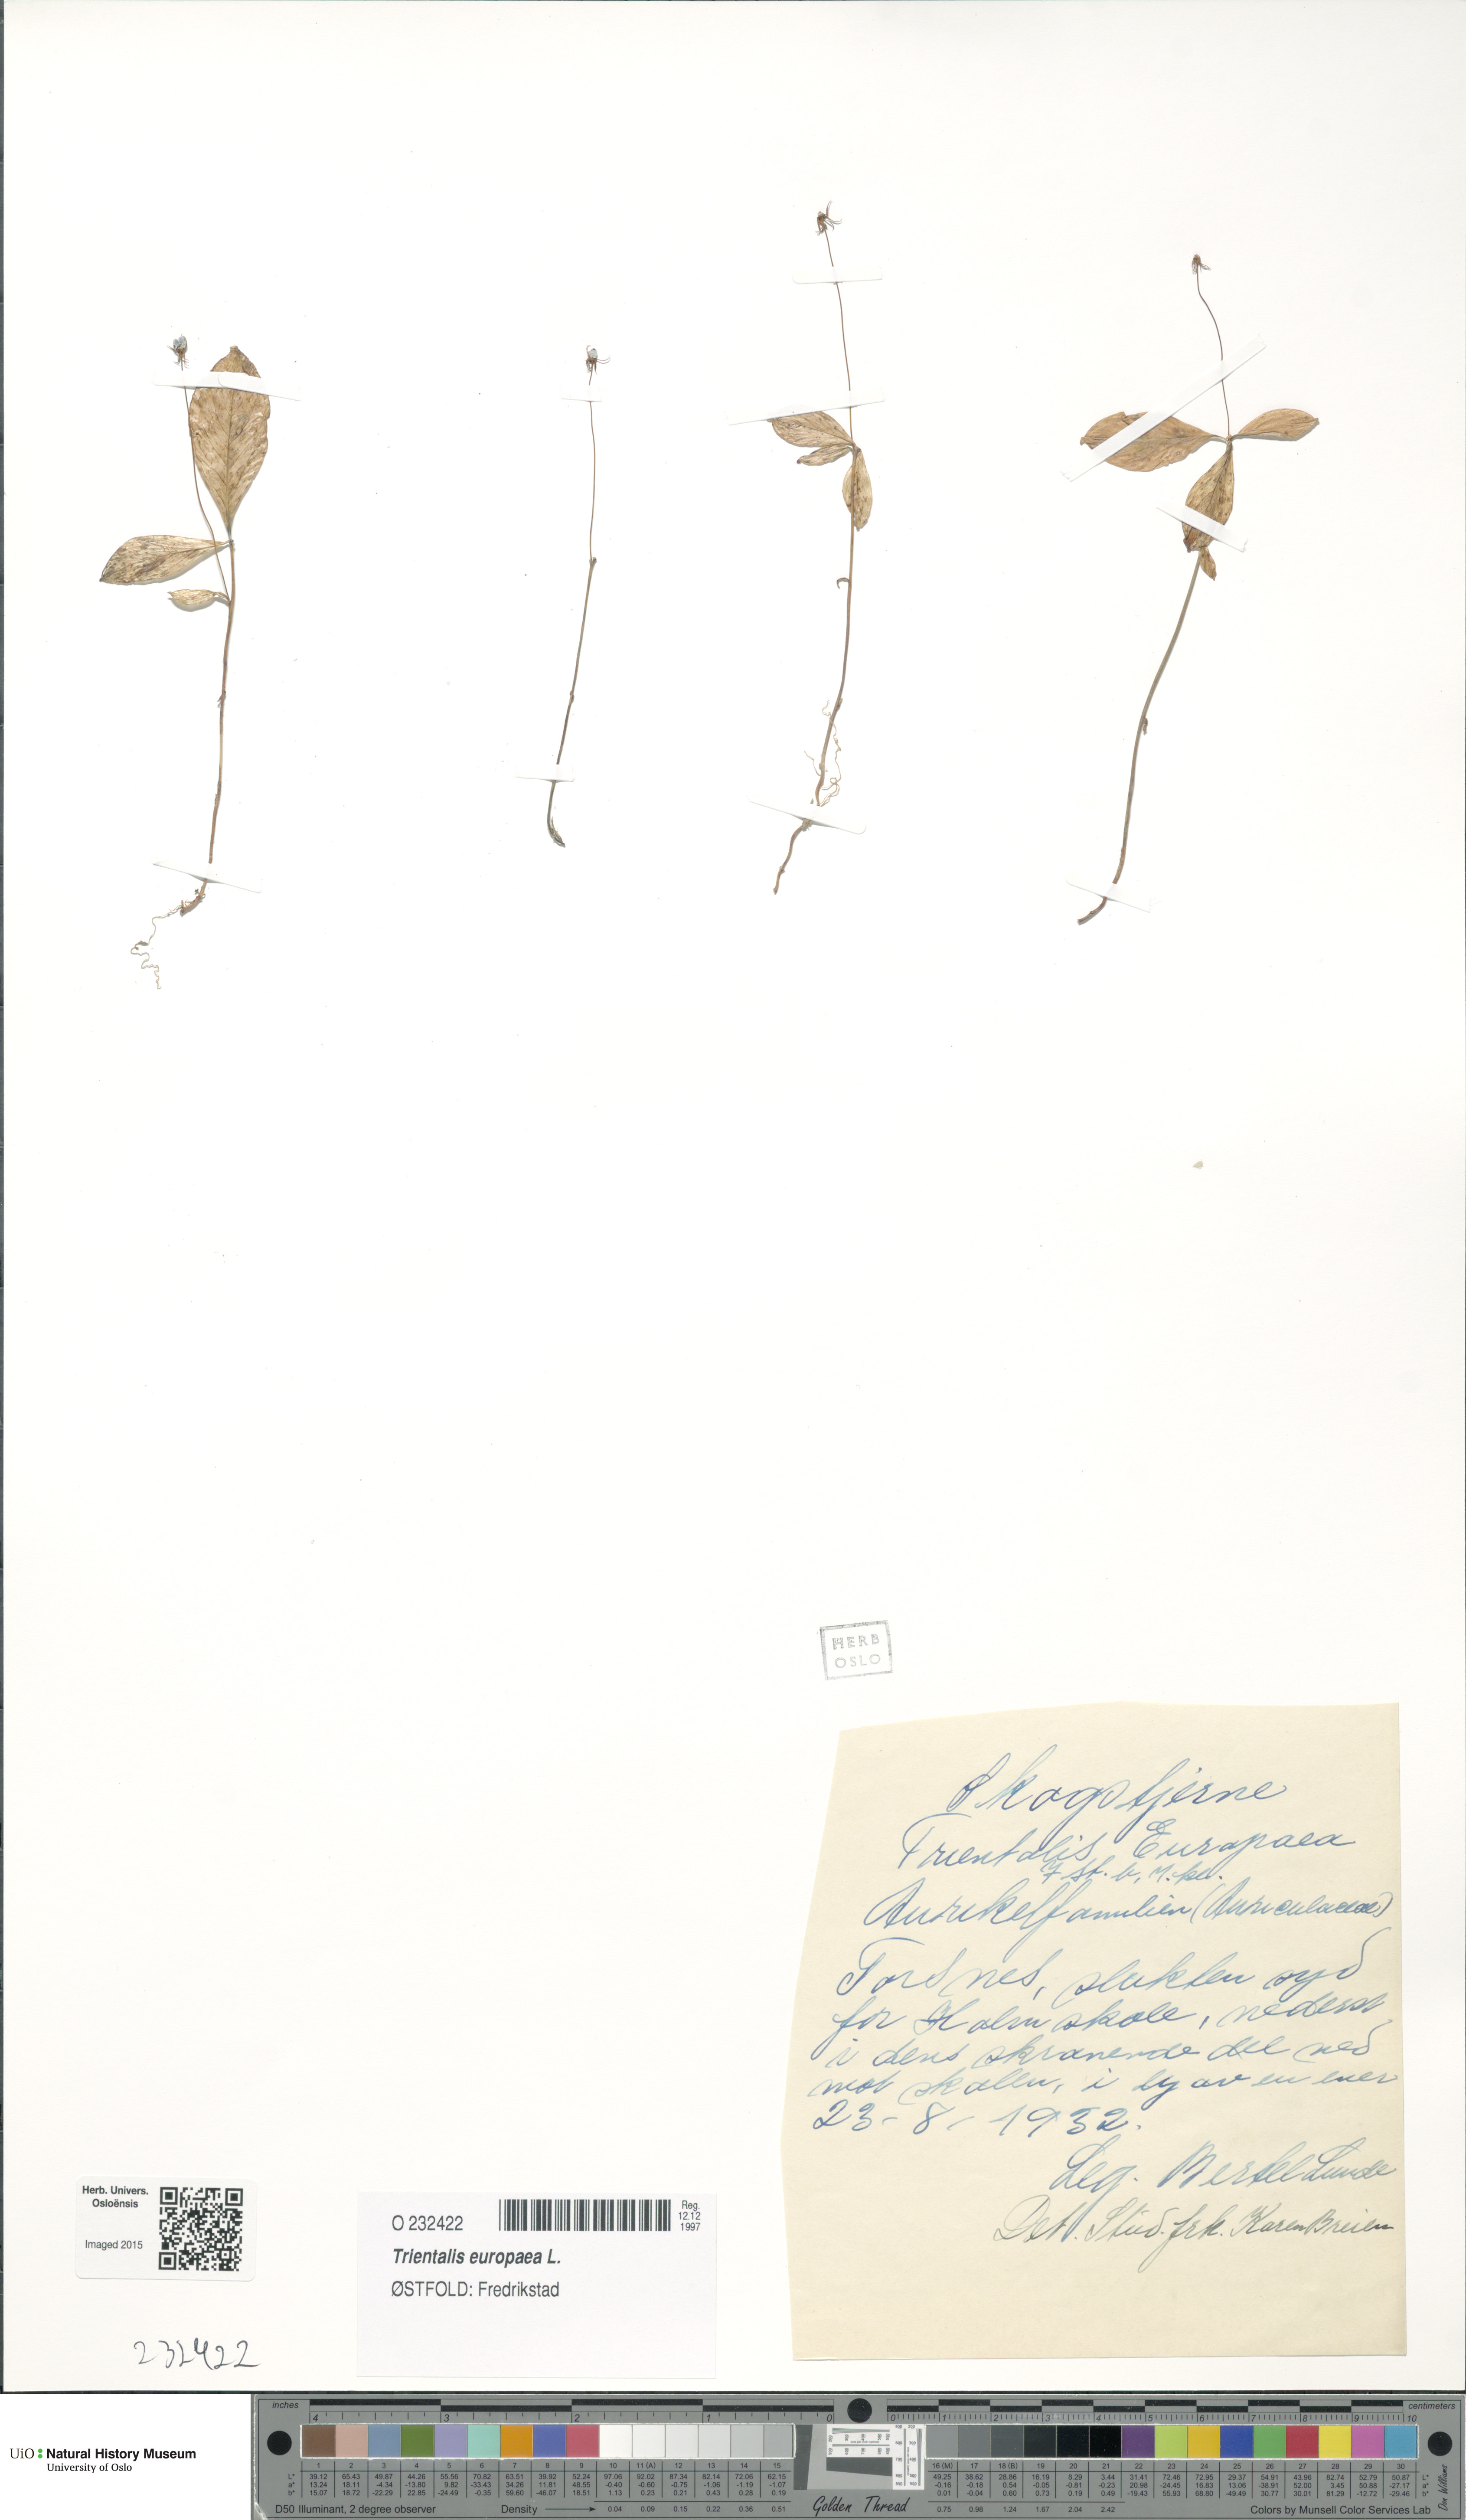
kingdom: Plantae
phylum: Tracheophyta
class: Magnoliopsida
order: Ericales
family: Primulaceae
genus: Lysimachia
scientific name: Lysimachia europaea
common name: Arctic starflower
